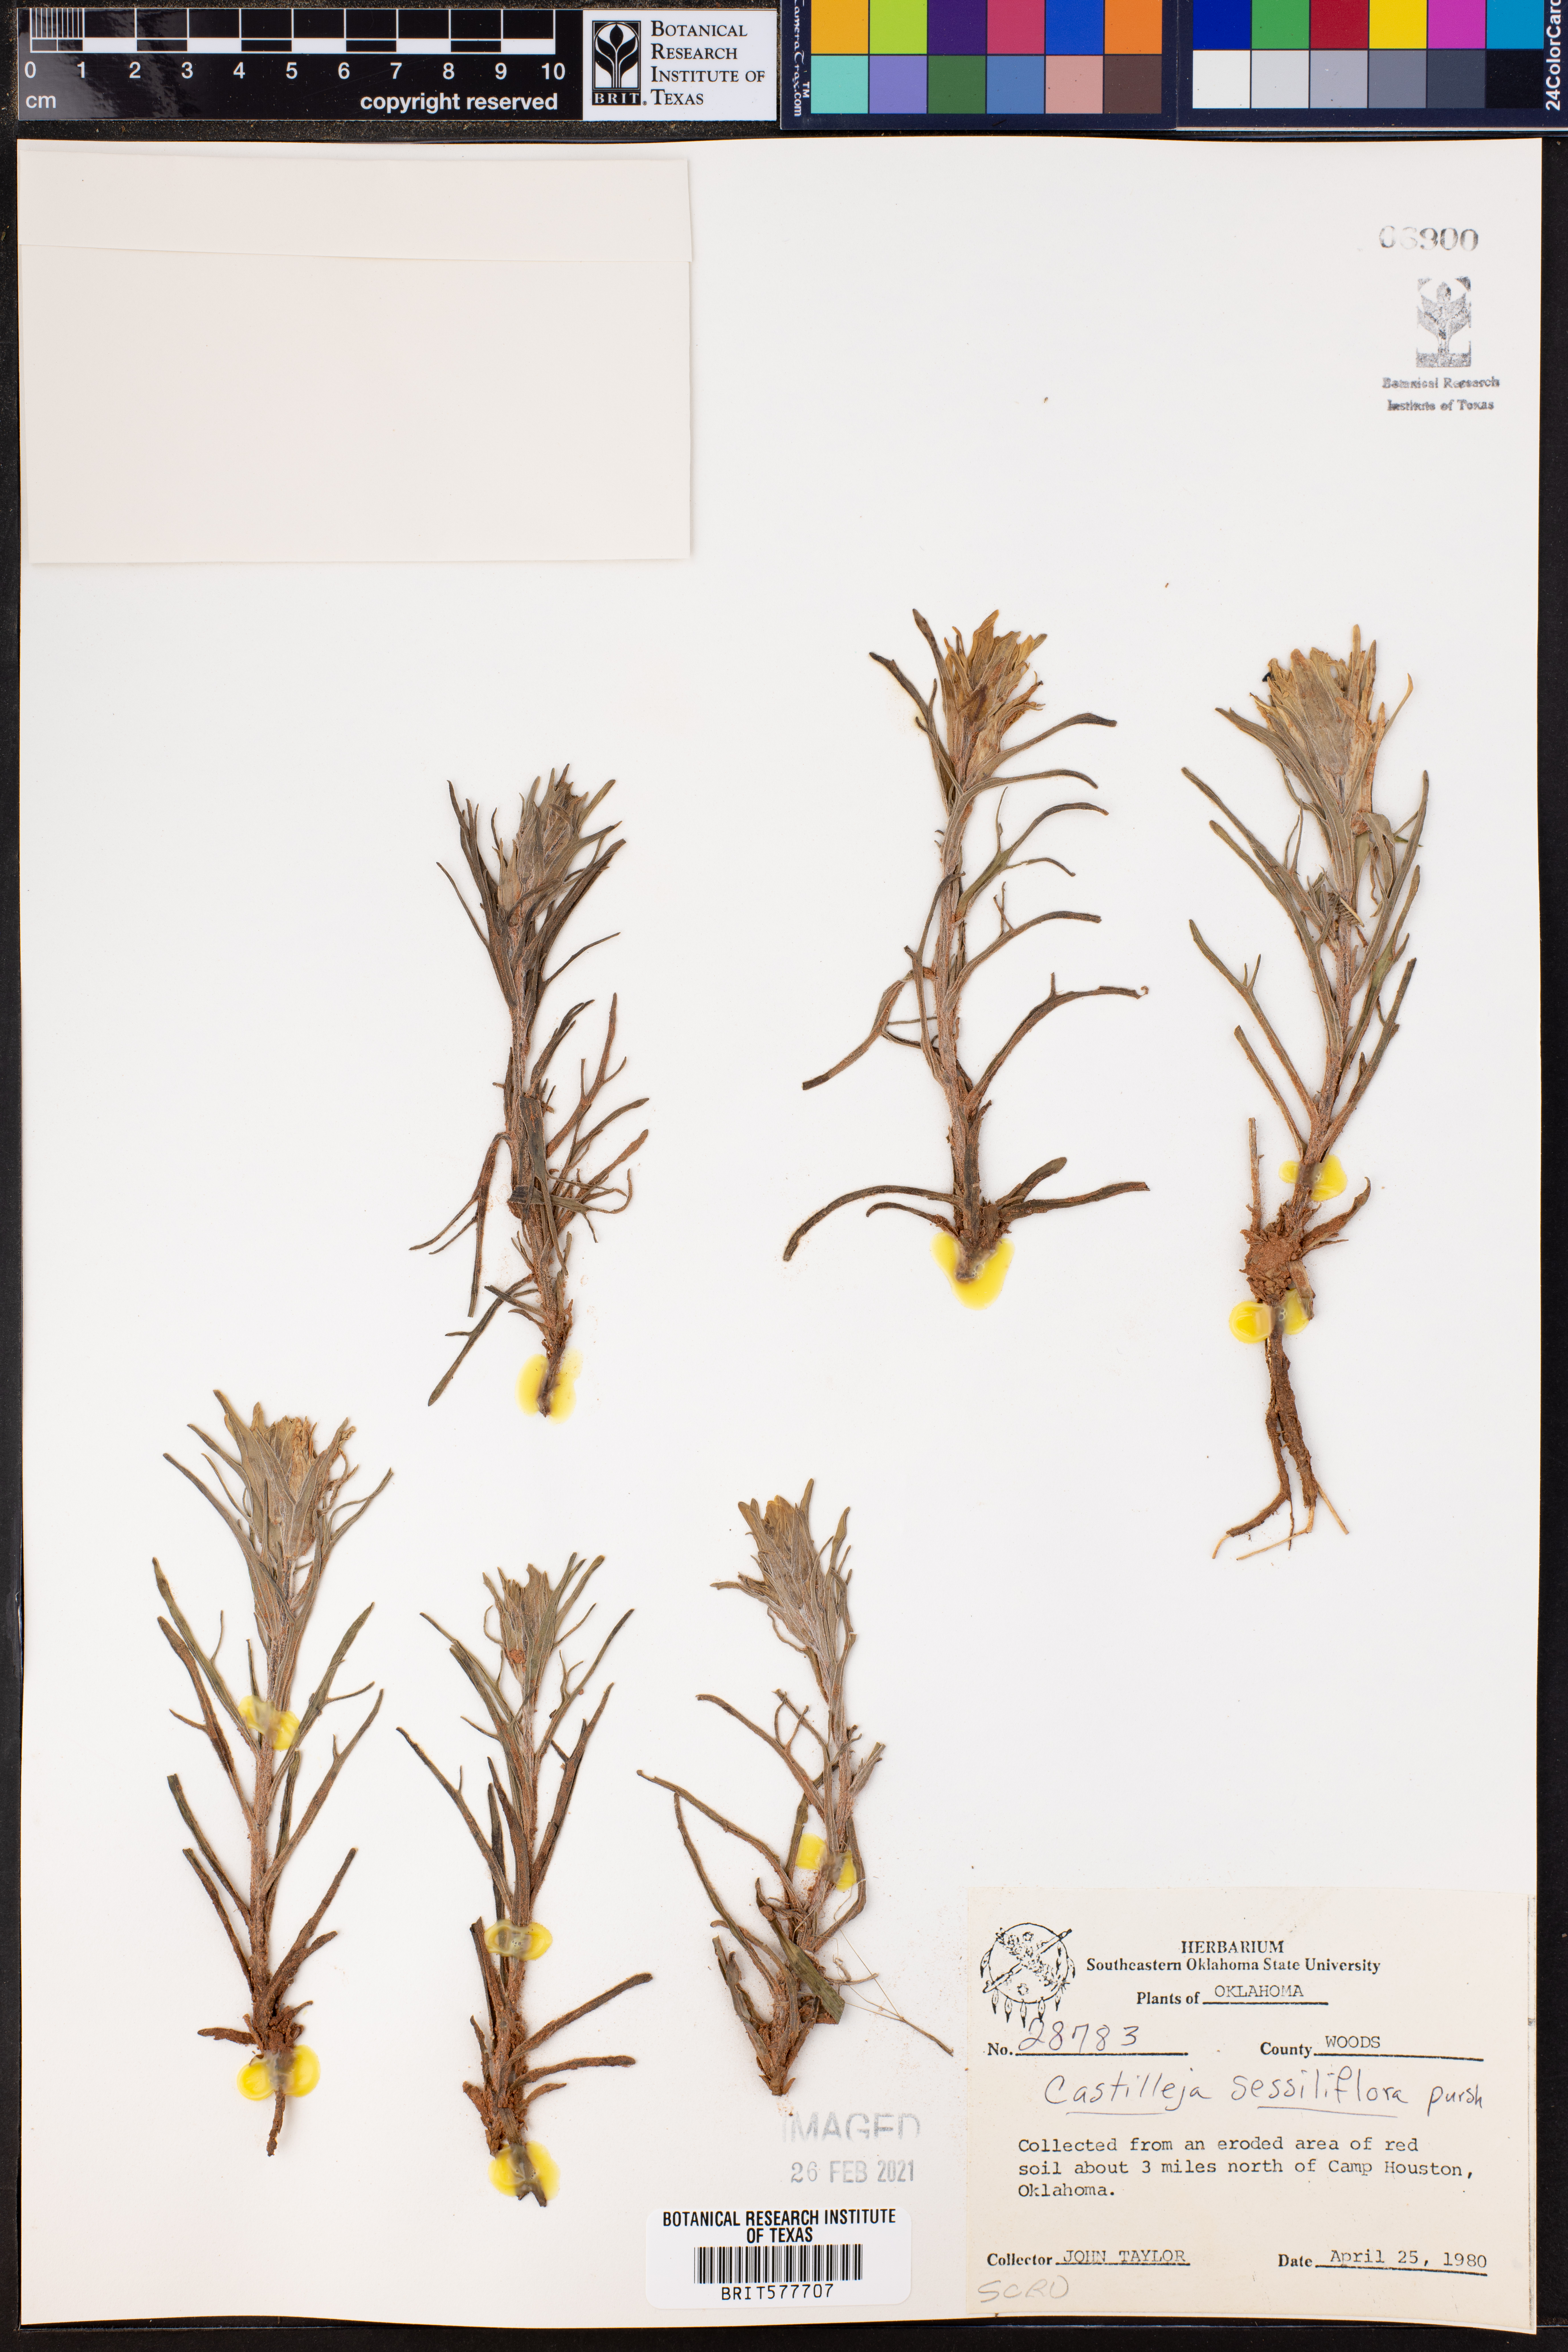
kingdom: Plantae
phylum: Tracheophyta
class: Magnoliopsida
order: Lamiales
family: Orobanchaceae
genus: Castilleja
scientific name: Castilleja sessiliflora
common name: Downy paintbrush
